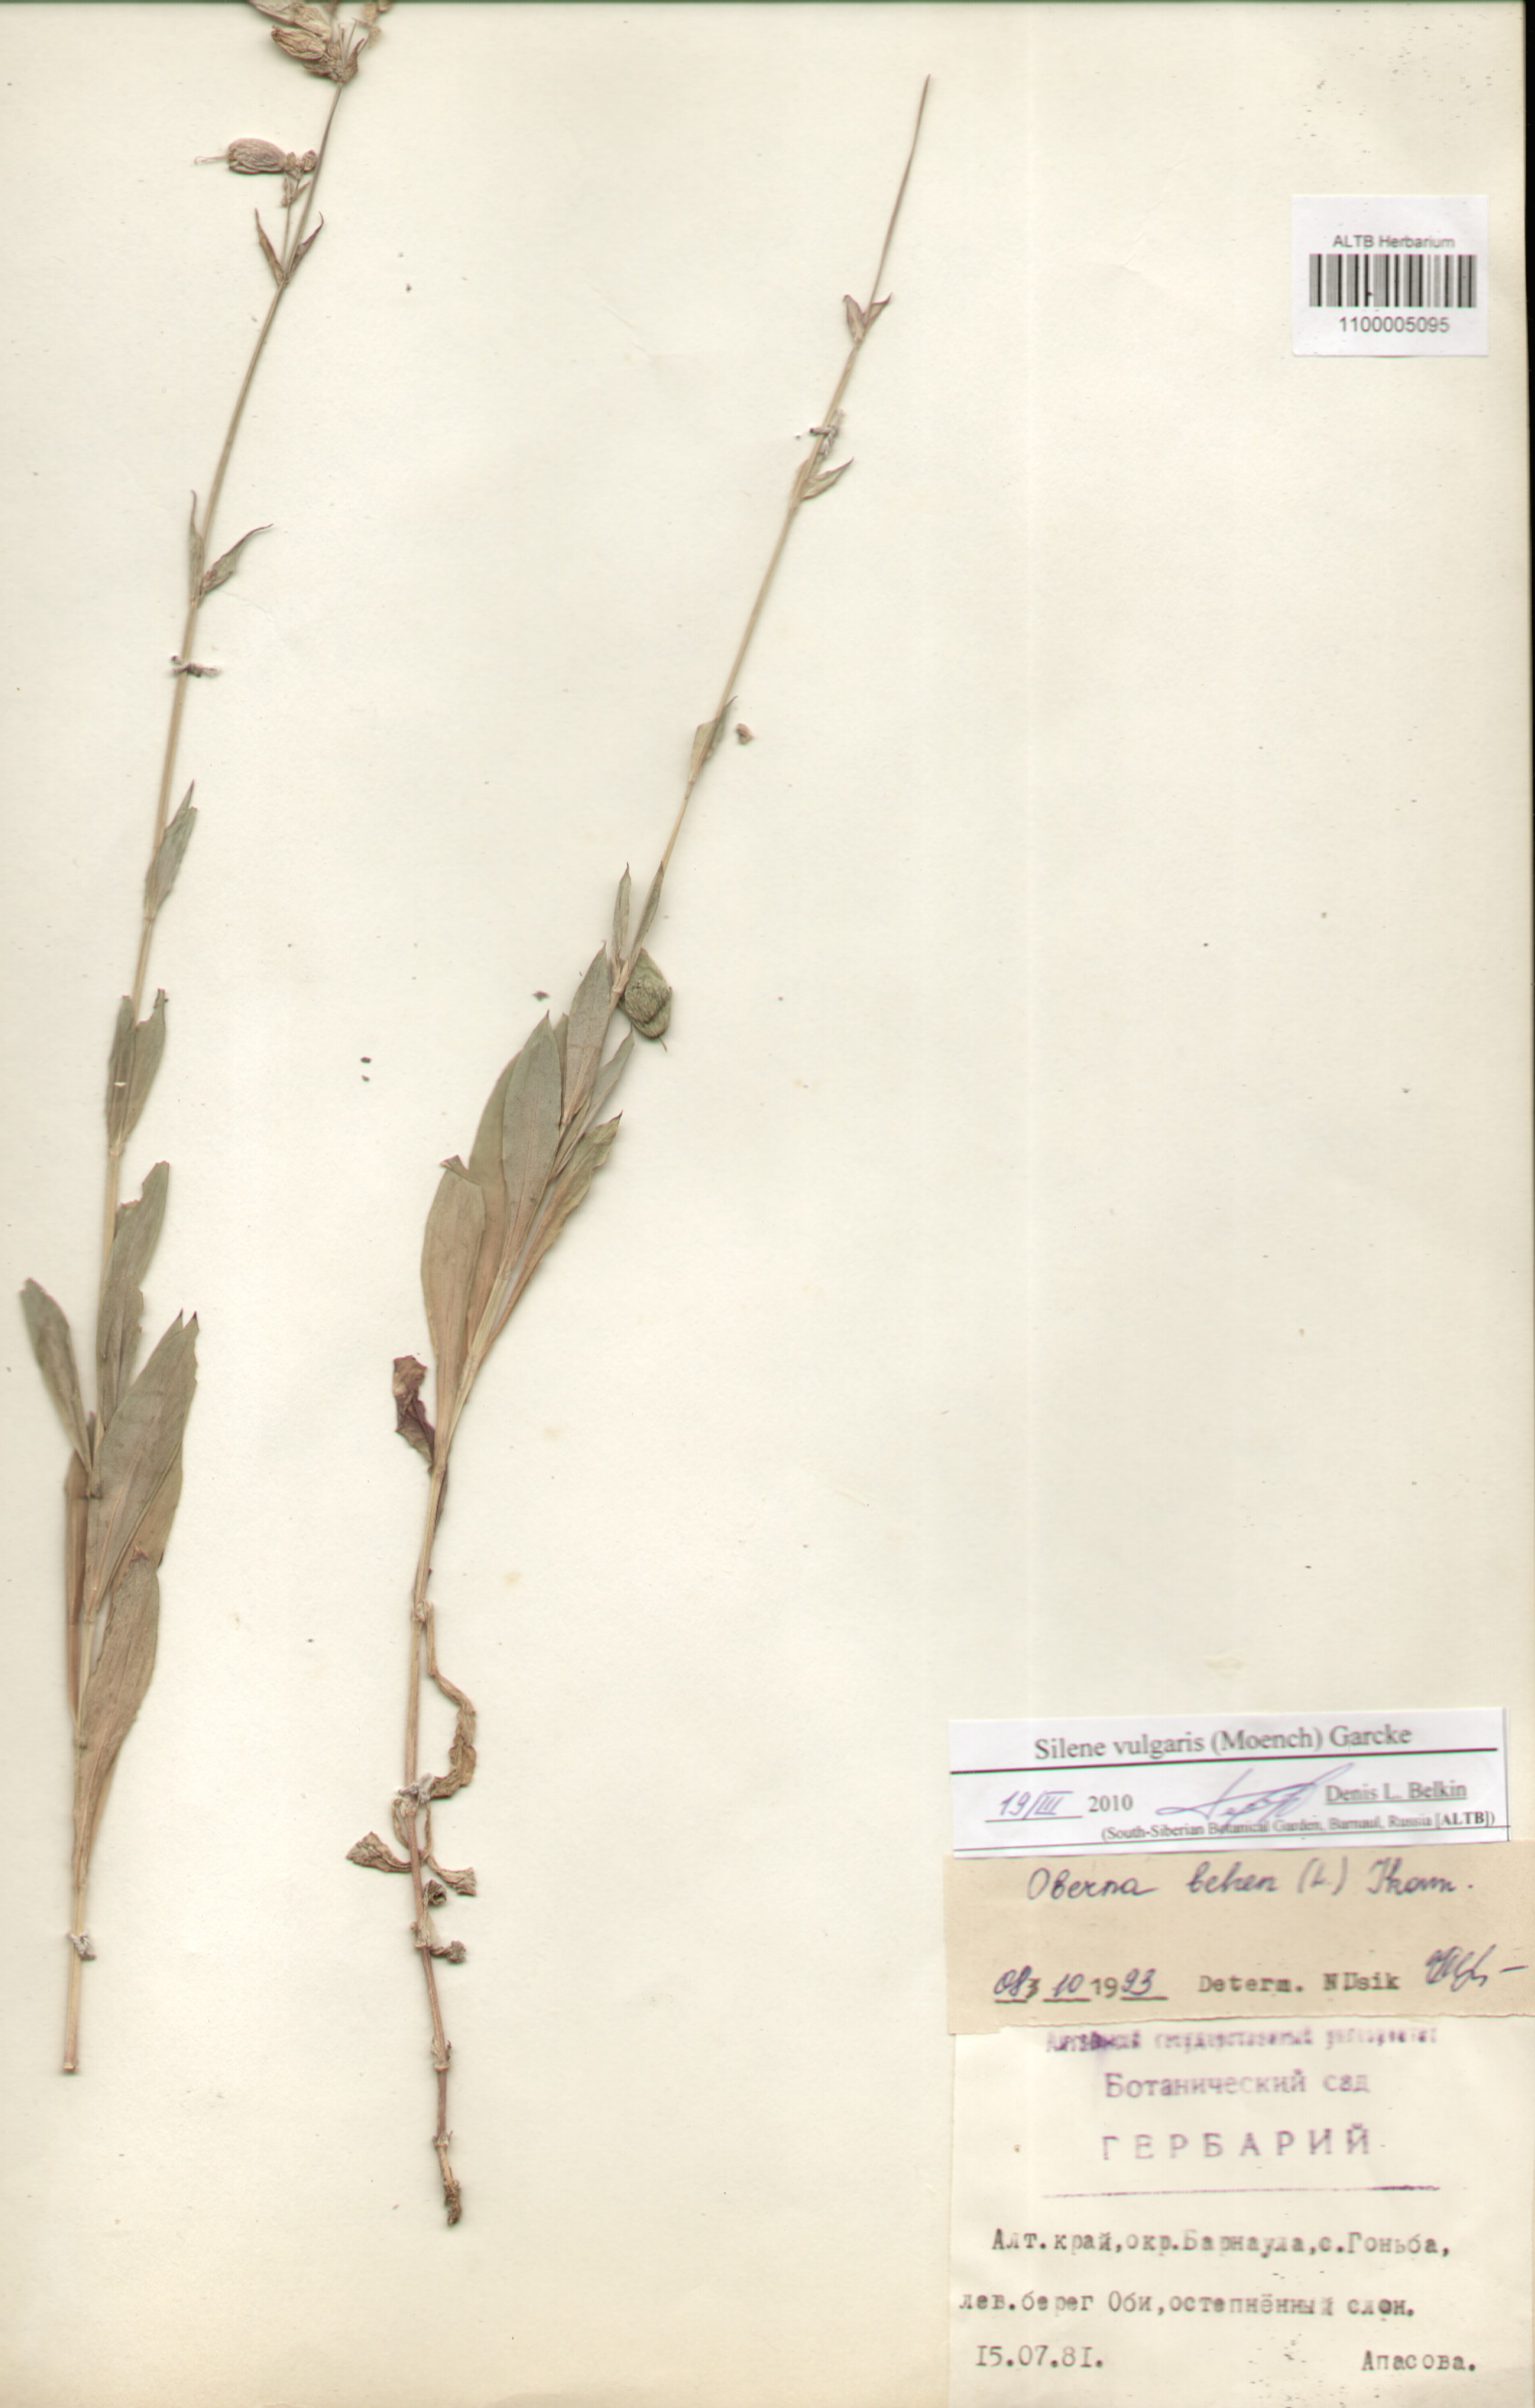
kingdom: Plantae
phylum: Tracheophyta
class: Magnoliopsida
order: Caryophyllales
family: Caryophyllaceae
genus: Silene
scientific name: Silene vulgaris
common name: Bladder campion
